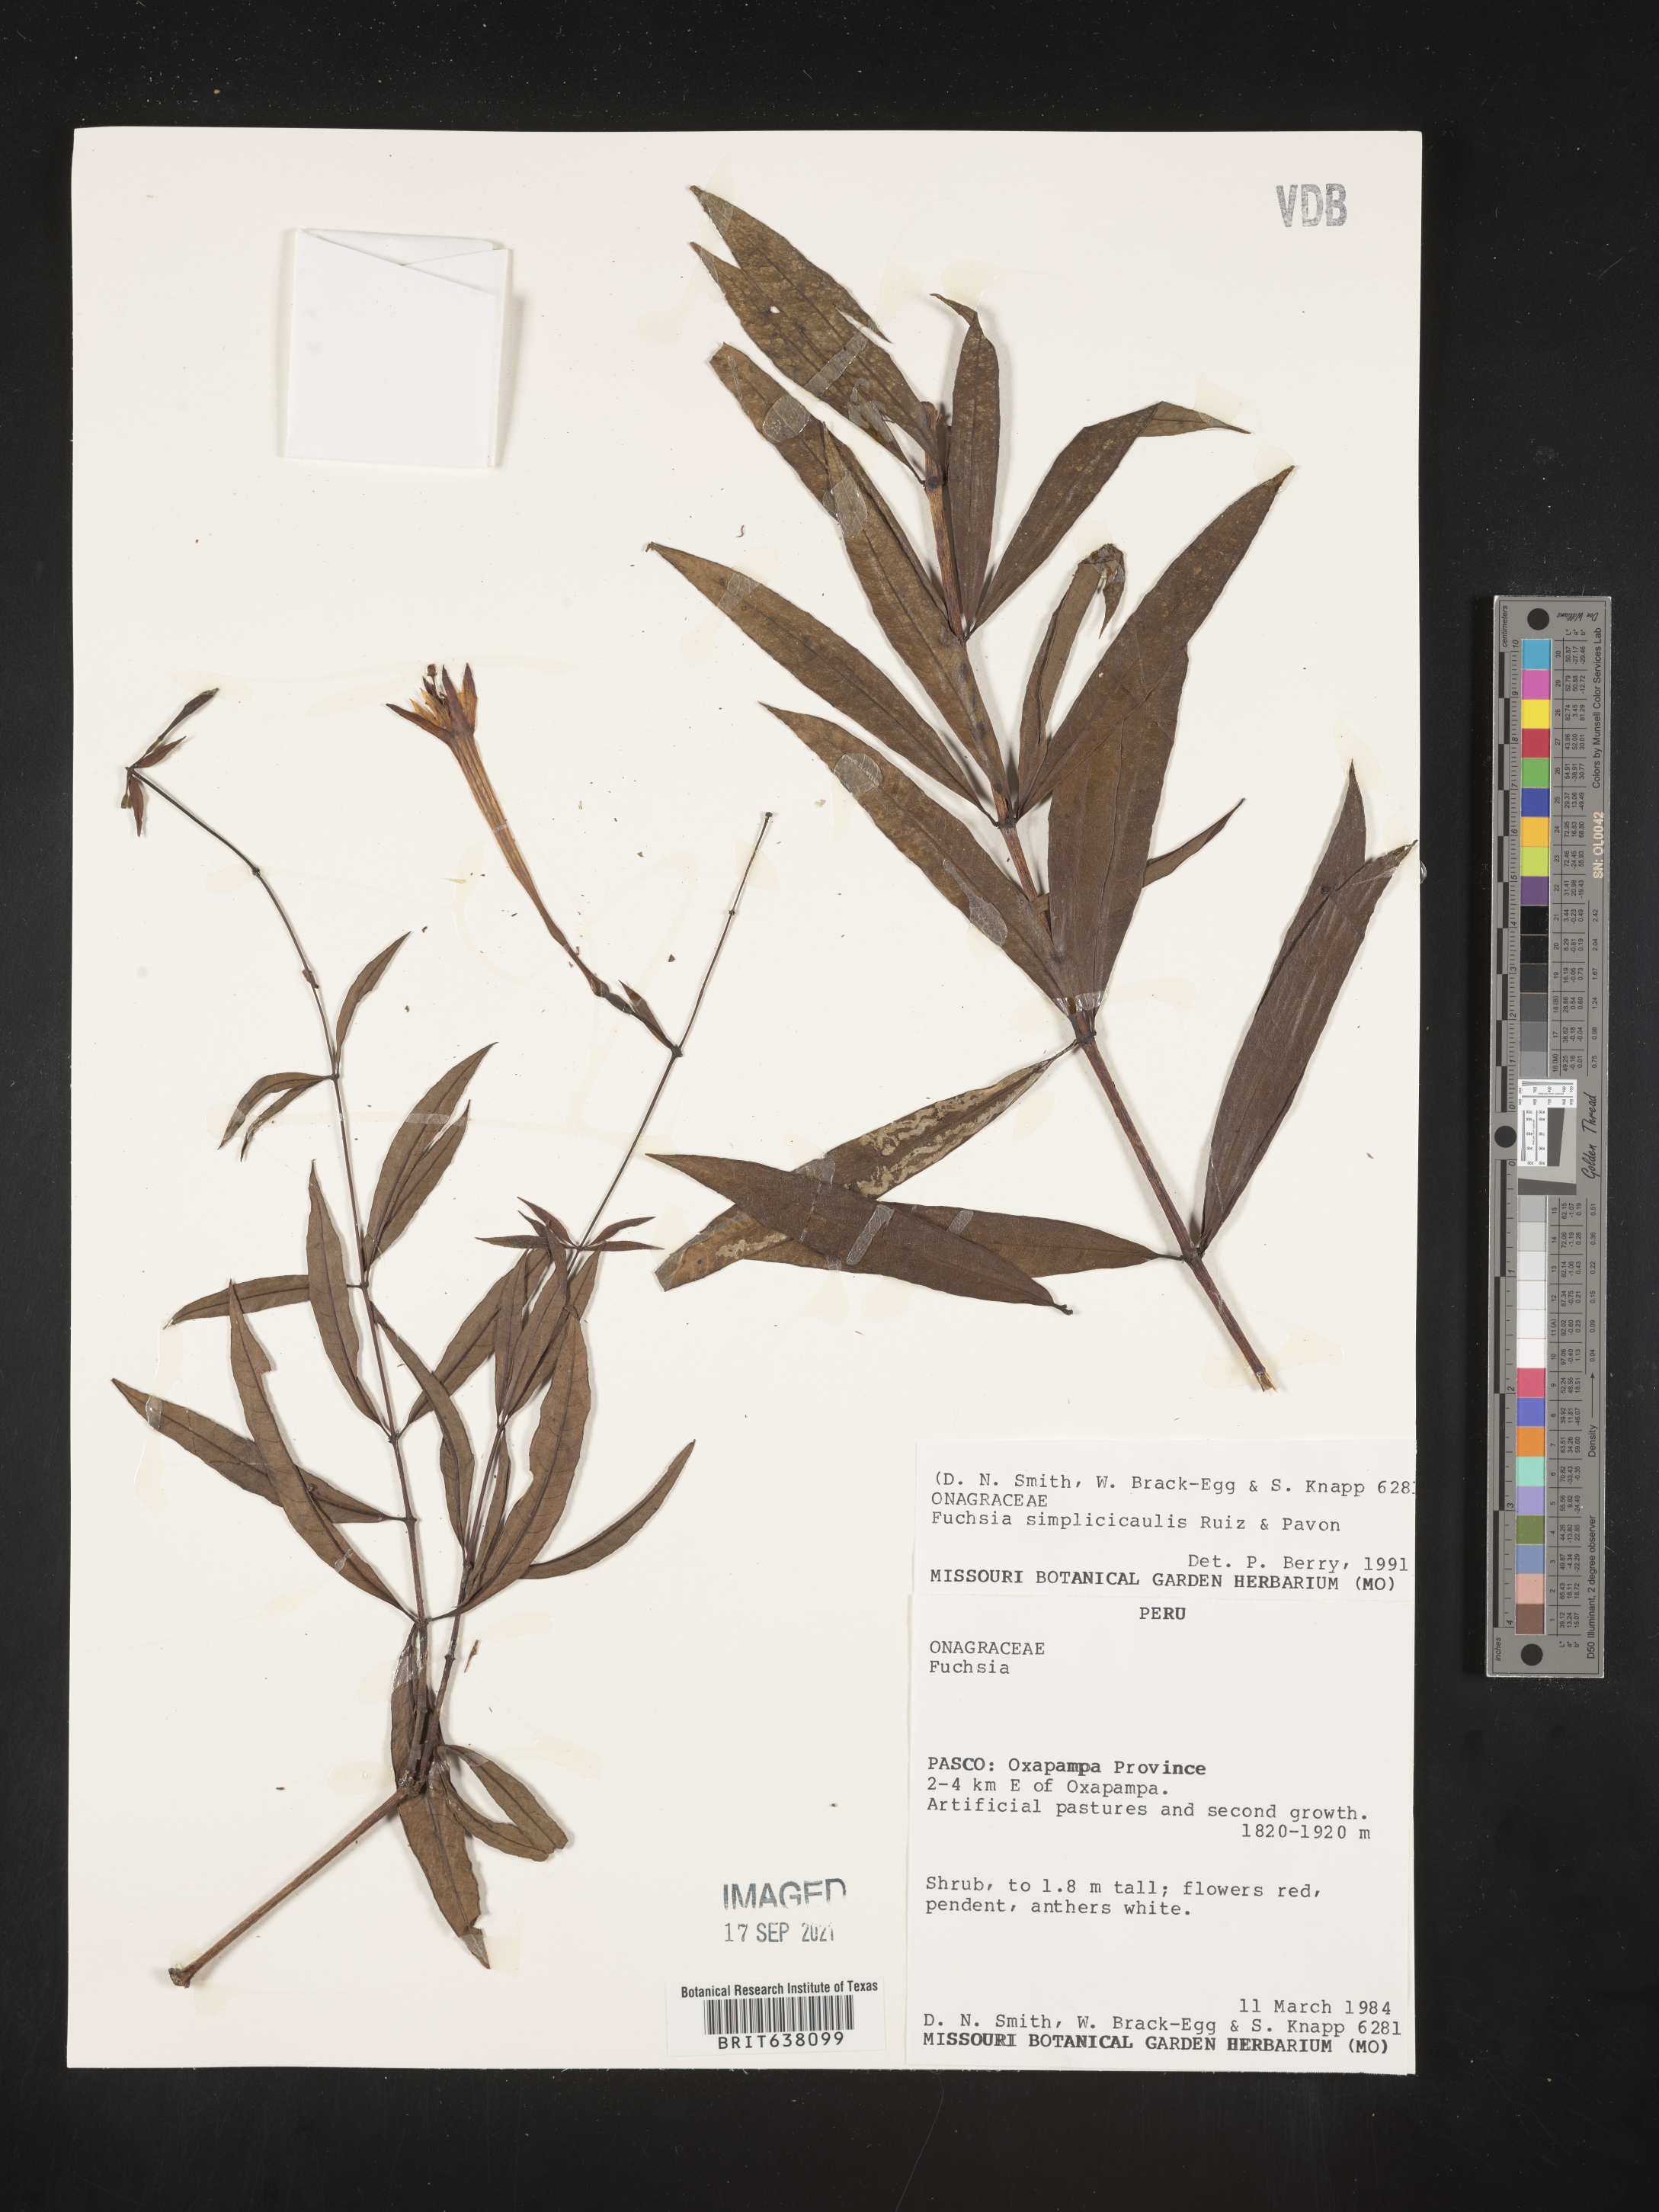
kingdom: Plantae
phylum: Tracheophyta
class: Magnoliopsida
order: Myrtales
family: Onagraceae
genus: Fuchsia
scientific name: Fuchsia
